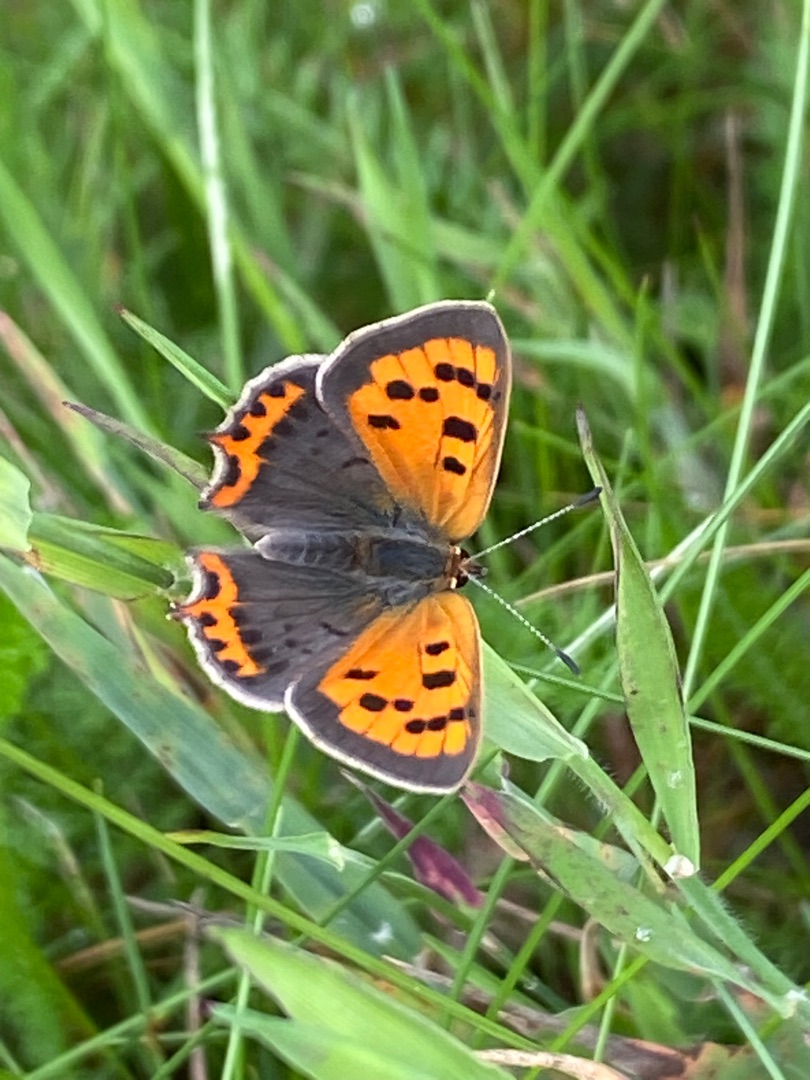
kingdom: Animalia
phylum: Arthropoda
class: Insecta
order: Lepidoptera
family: Lycaenidae
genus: Lycaena
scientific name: Lycaena phlaeas
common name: Lille ildfugl
